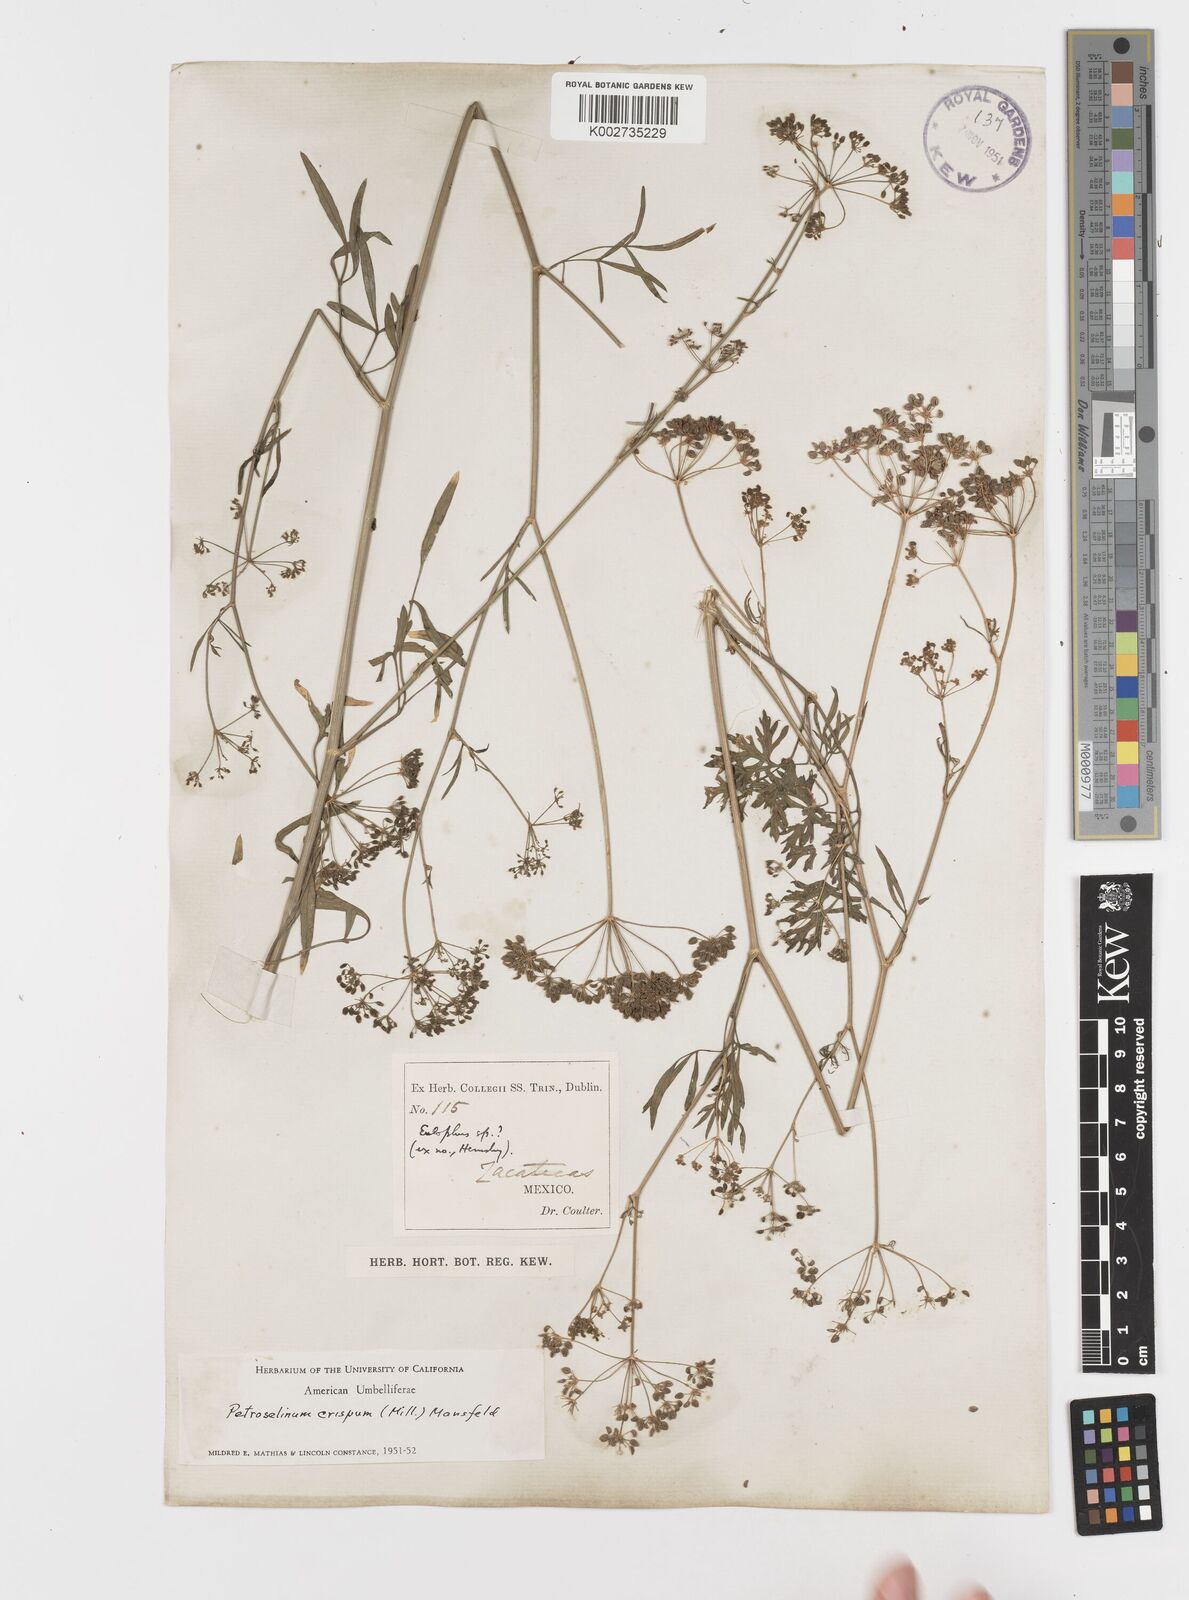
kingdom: Plantae
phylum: Tracheophyta
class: Magnoliopsida
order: Apiales
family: Apiaceae
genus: Petroselinum
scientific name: Petroselinum
